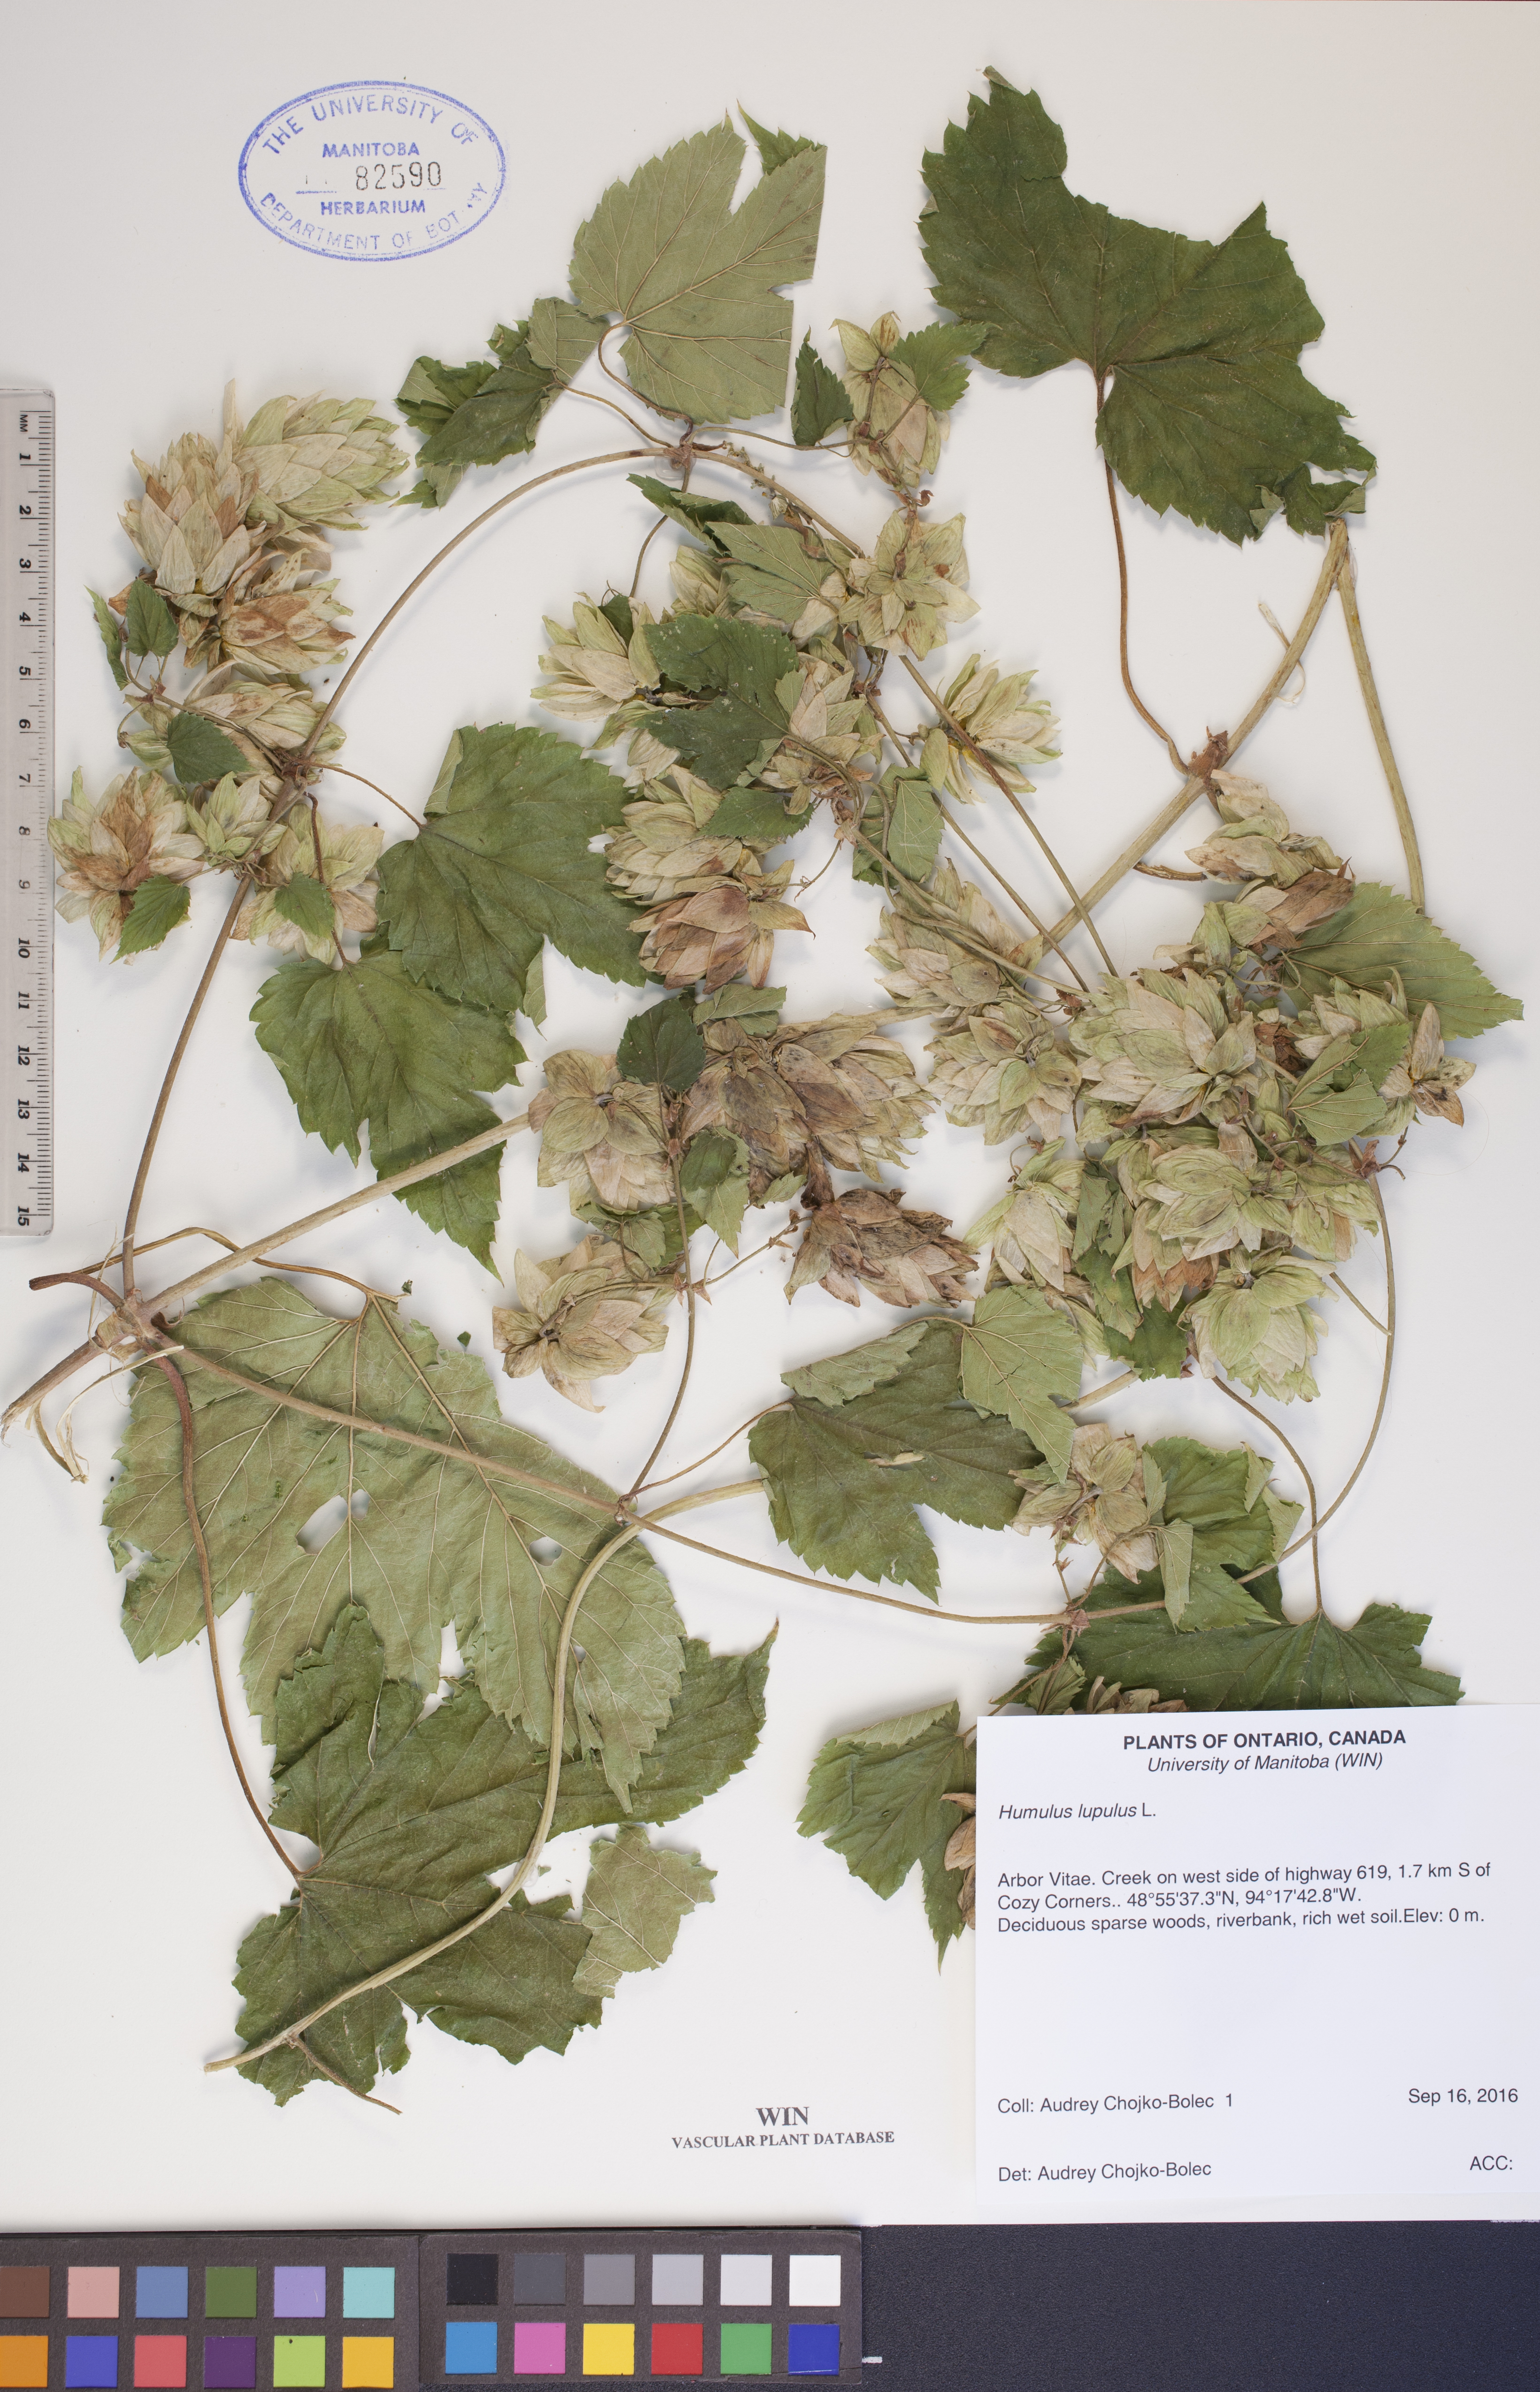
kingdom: Plantae
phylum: Tracheophyta
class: Magnoliopsida
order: Rosales
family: Cannabaceae
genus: Humulus
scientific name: Humulus lupulus
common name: Hop
